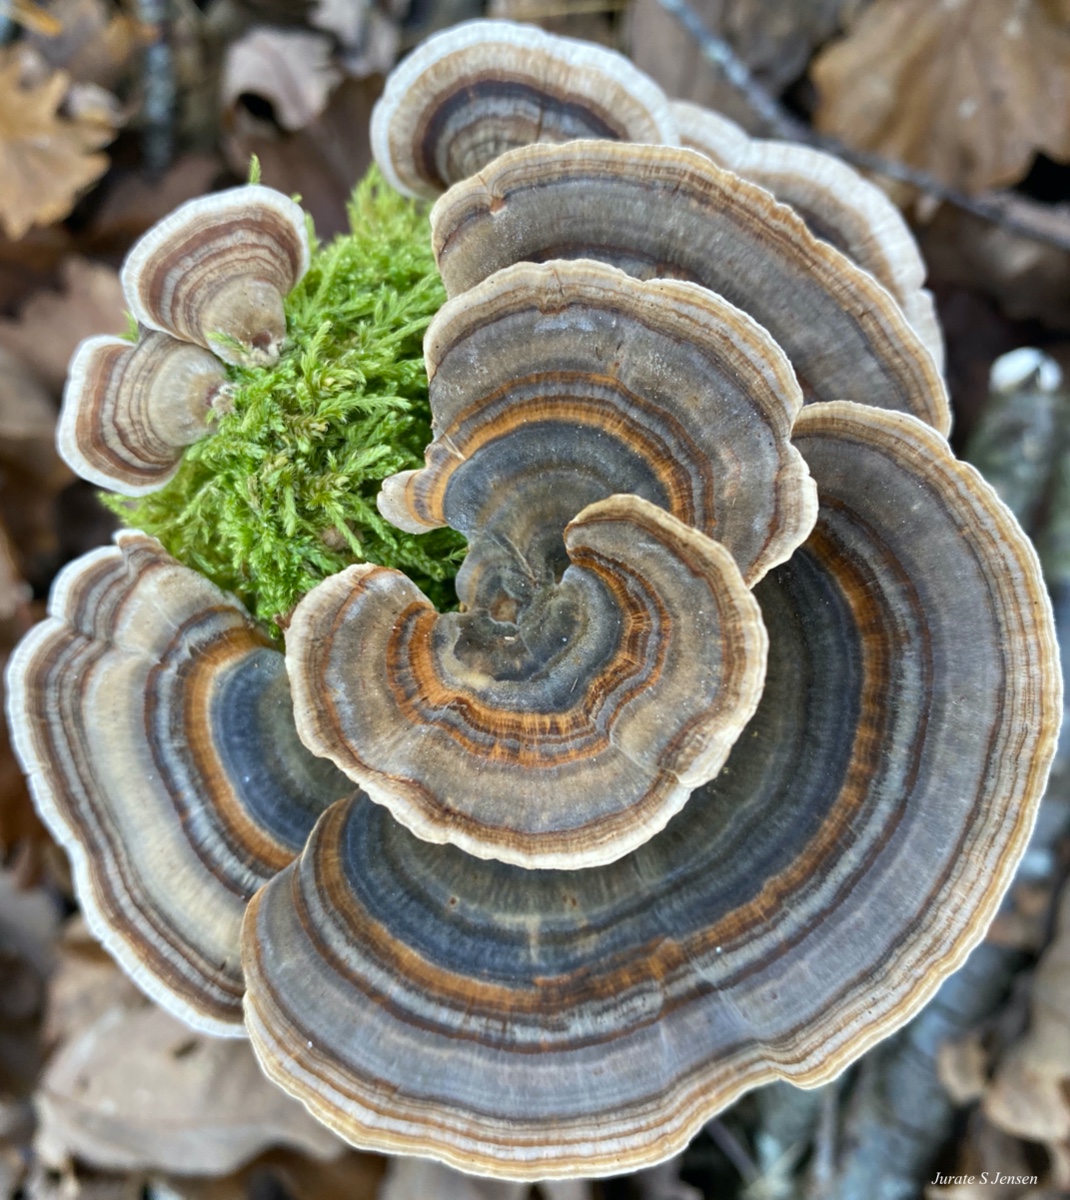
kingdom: Fungi
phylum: Basidiomycota
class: Agaricomycetes
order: Polyporales
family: Polyporaceae
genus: Trametes
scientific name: Trametes versicolor
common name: broget læderporesvamp
